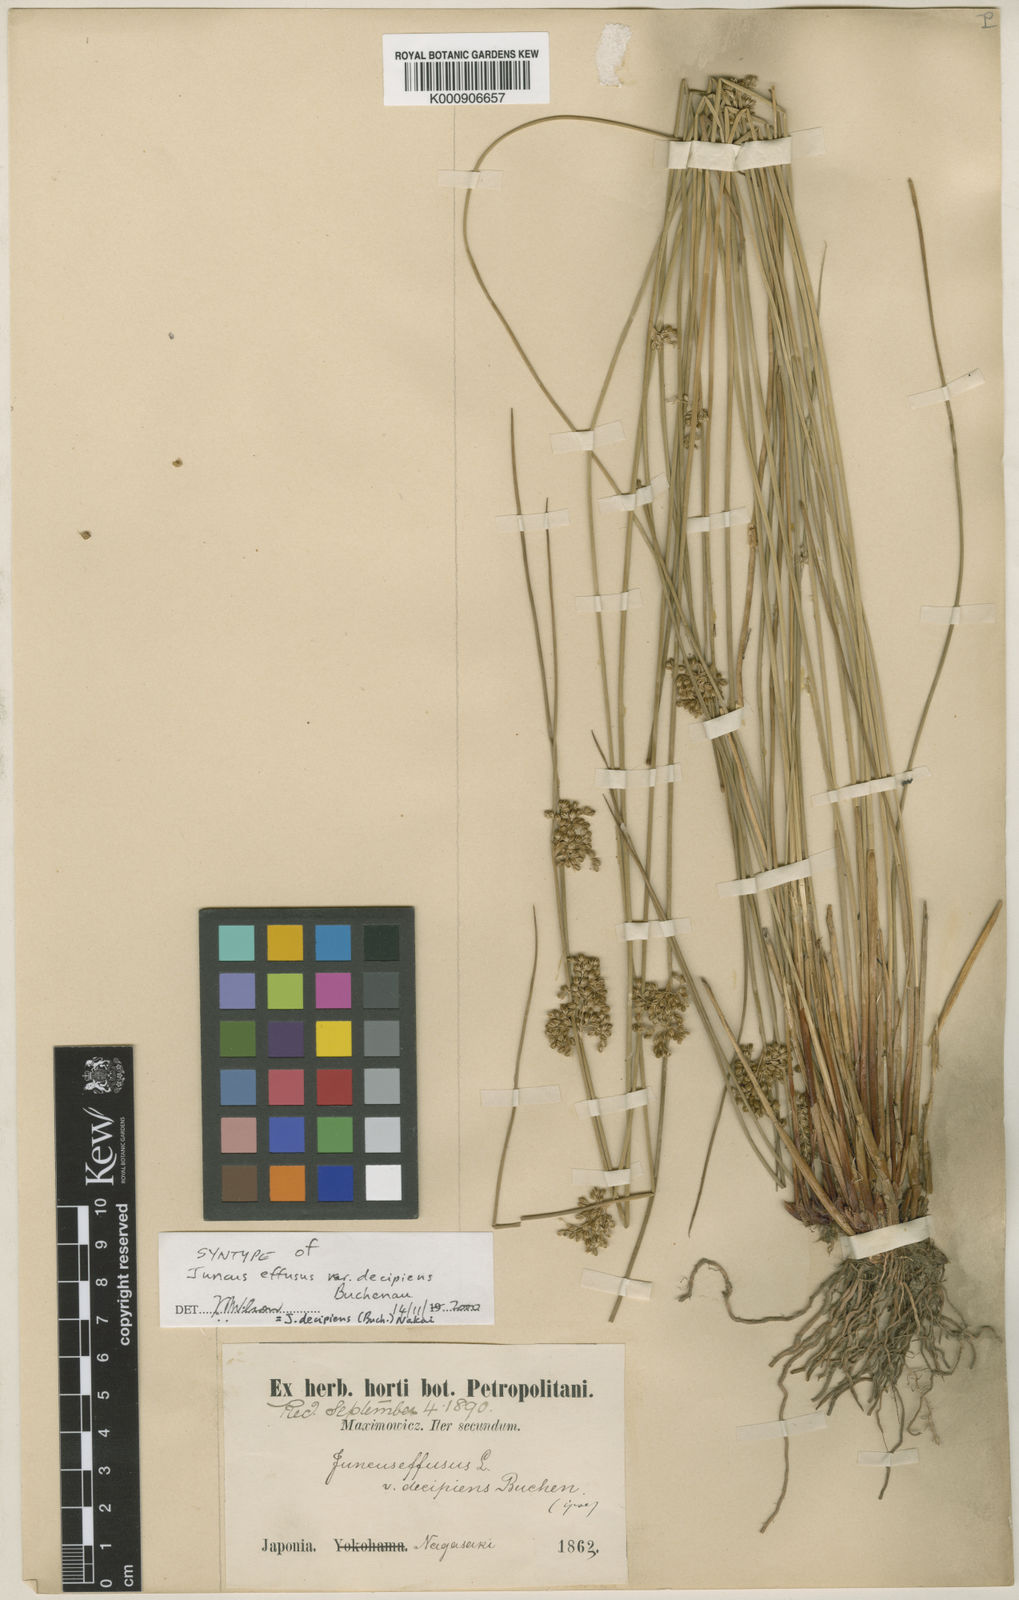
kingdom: Plantae
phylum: Tracheophyta
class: Liliopsida
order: Poales
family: Juncaceae
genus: Juncus
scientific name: Juncus decipiens
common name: Lamp rush
